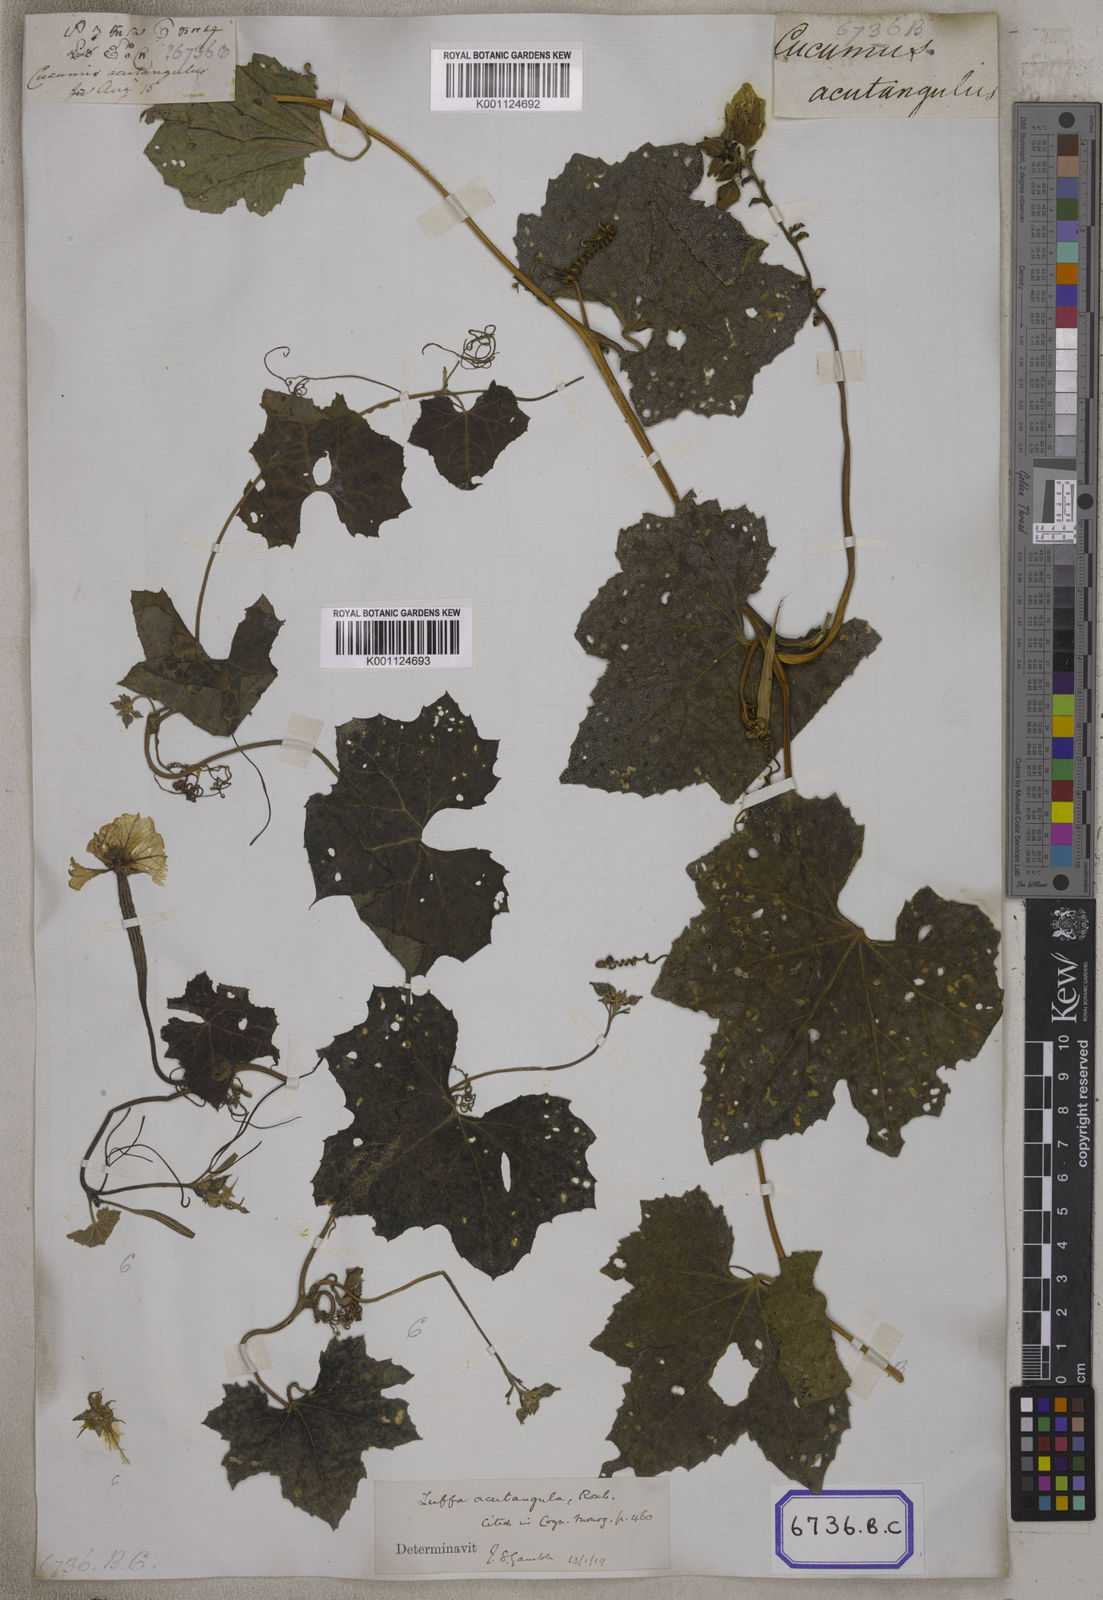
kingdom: Plantae
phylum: Tracheophyta
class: Magnoliopsida
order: Cucurbitales
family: Cucurbitaceae
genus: Cucumis
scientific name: Cucumis
